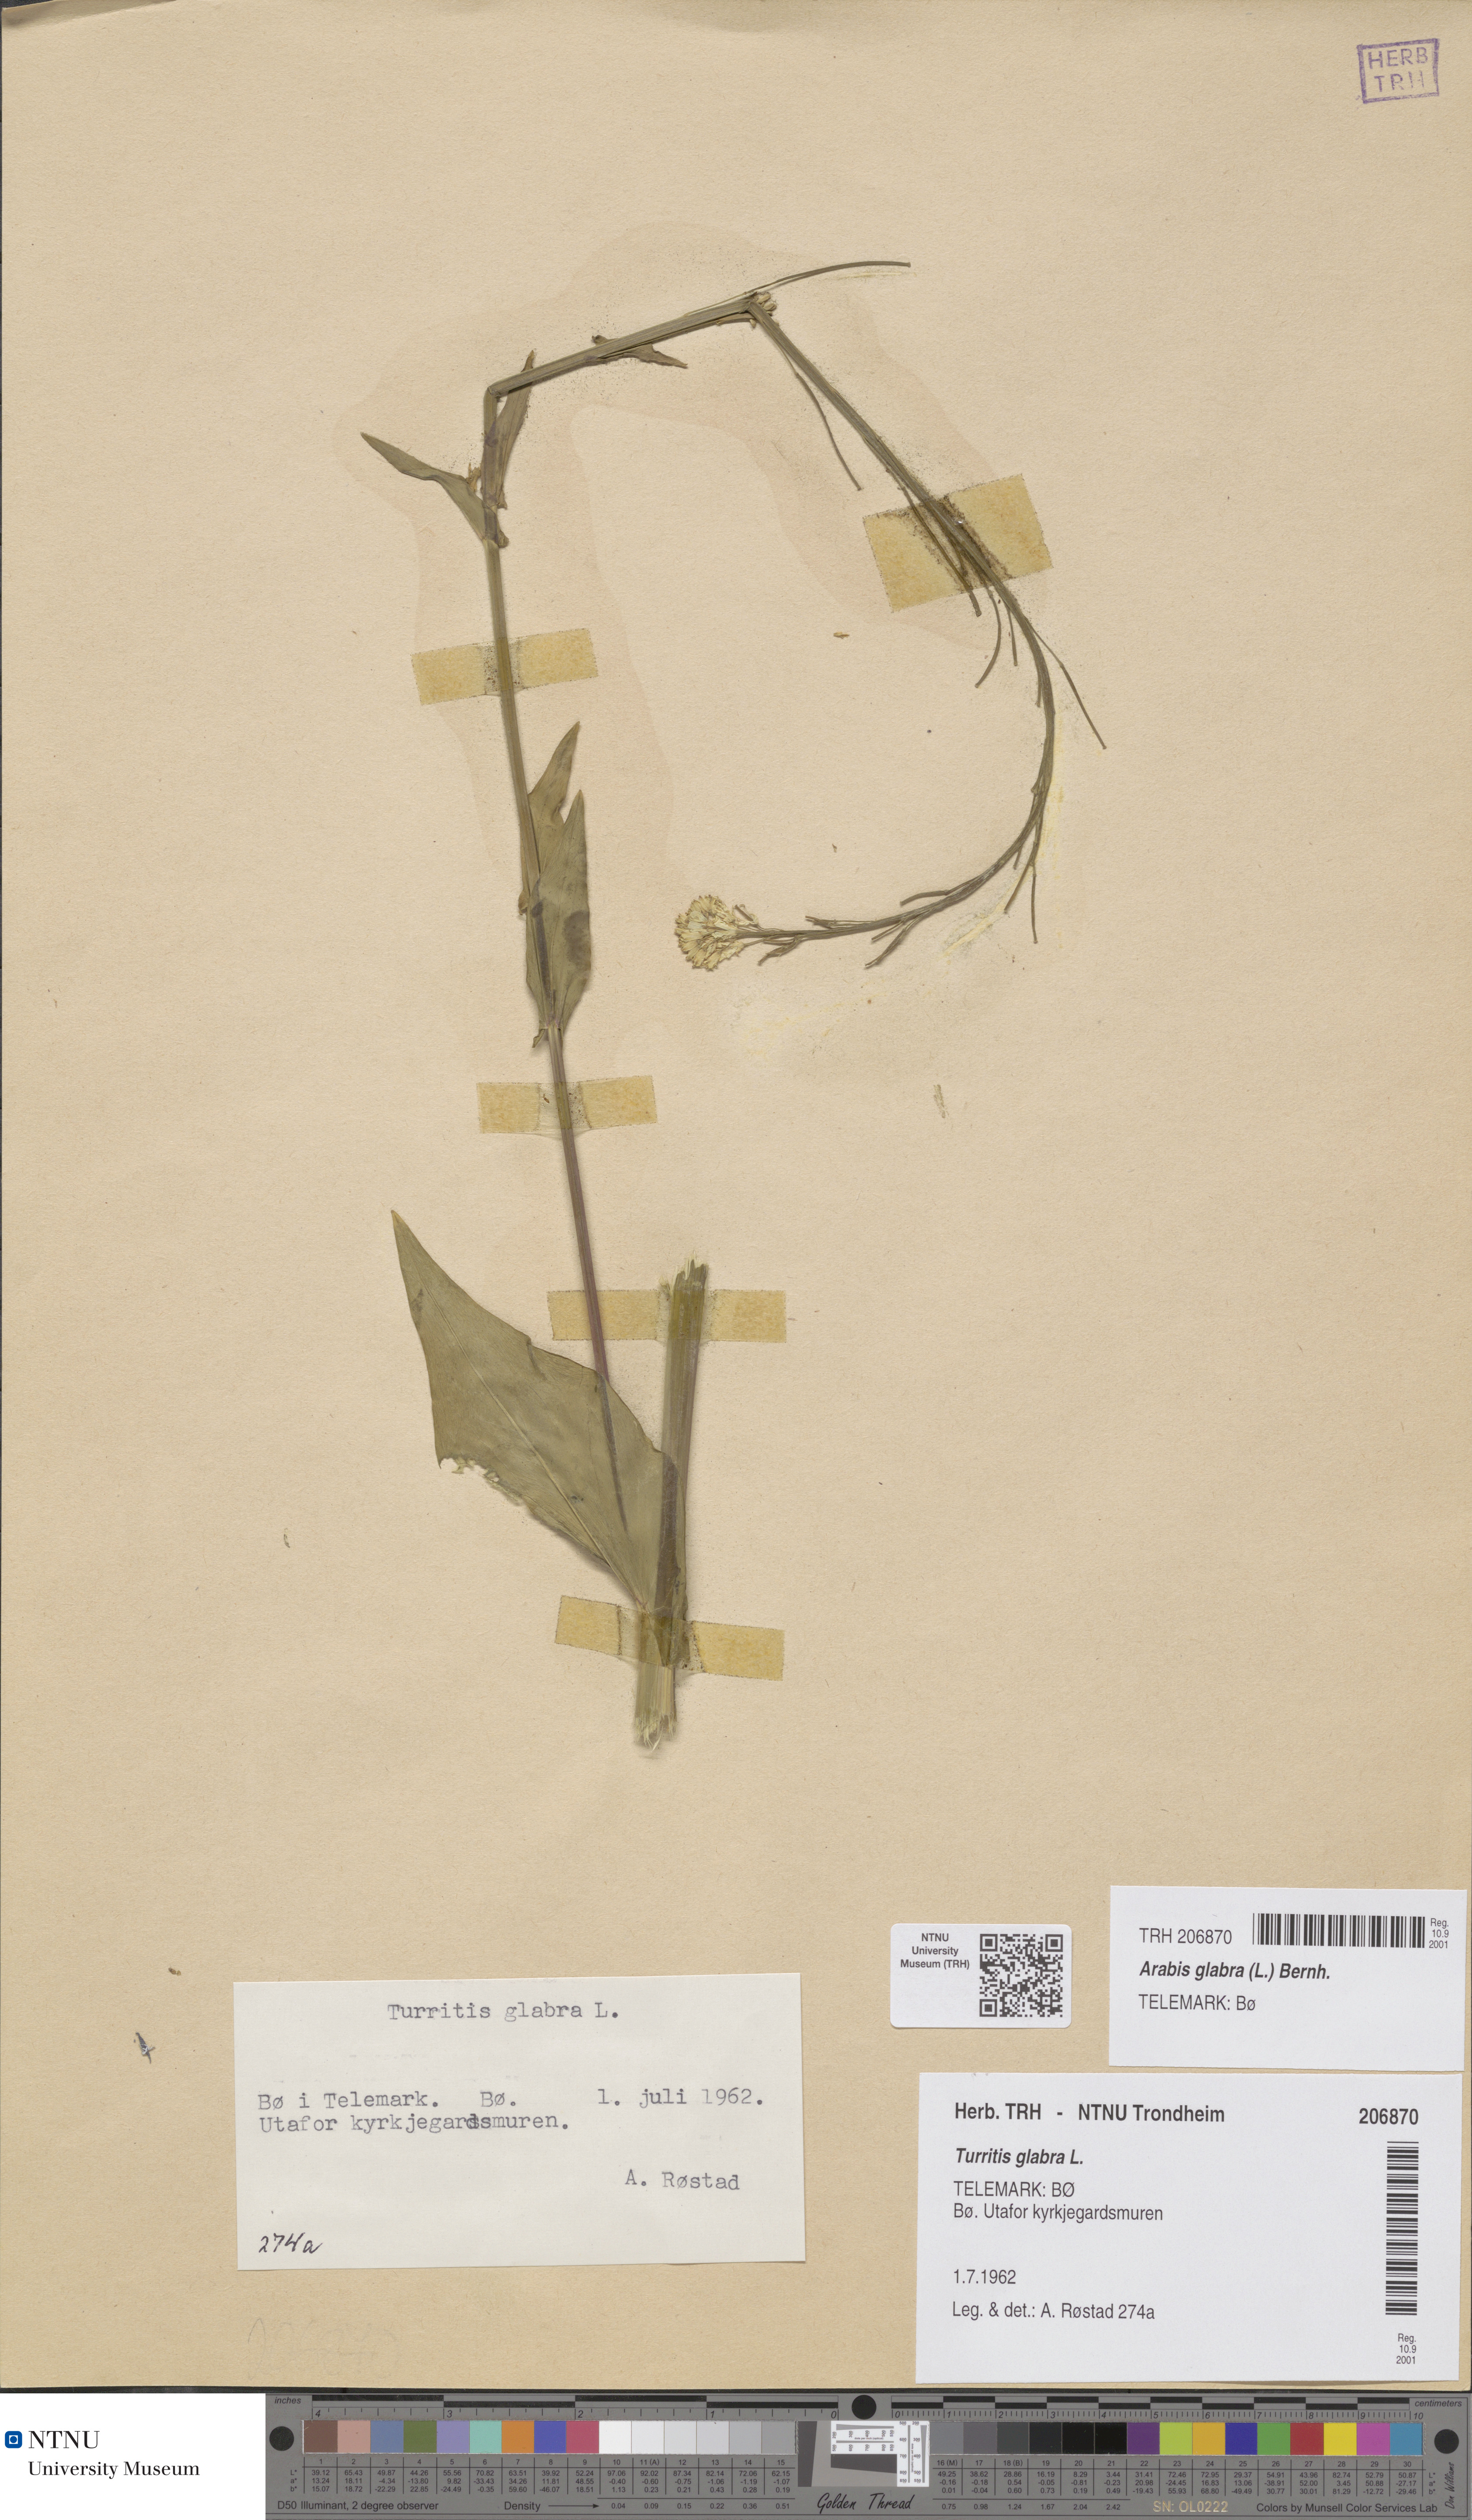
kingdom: Plantae
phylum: Tracheophyta
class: Magnoliopsida
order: Brassicales
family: Brassicaceae
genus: Turritis
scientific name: Turritis glabra
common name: Tower rockcress
